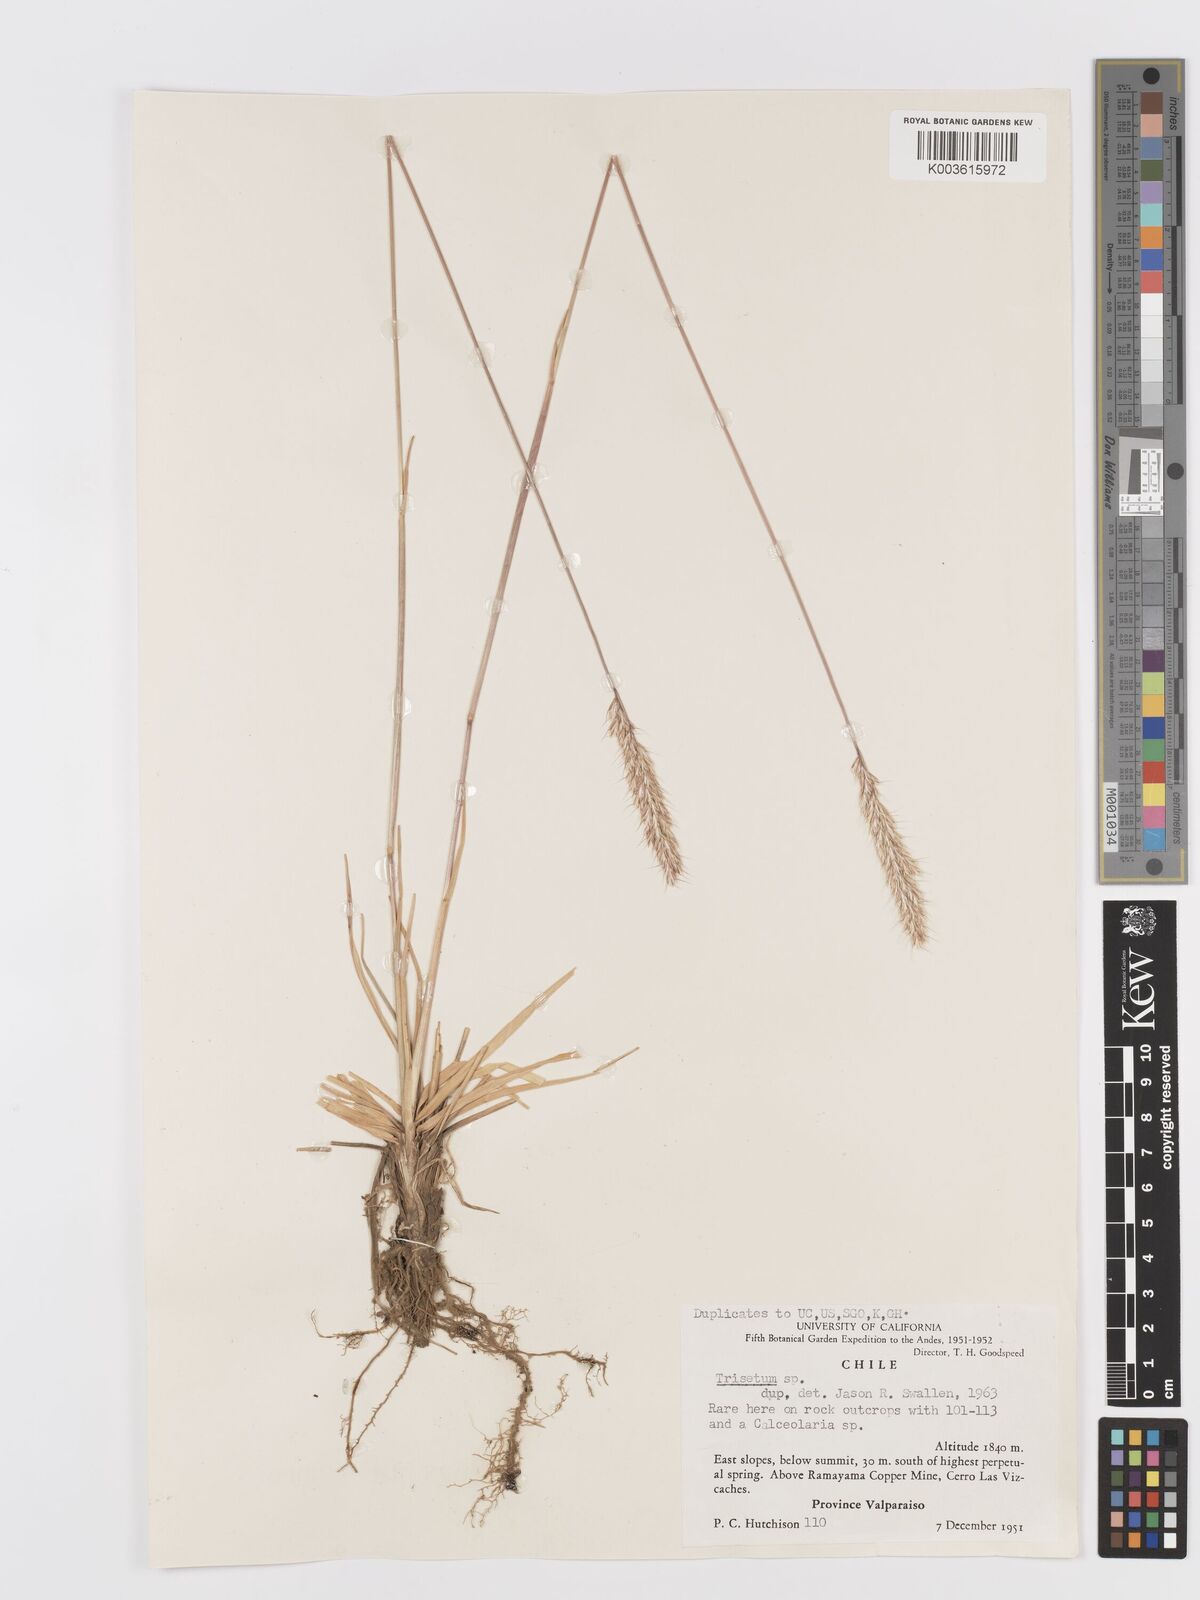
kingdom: Plantae
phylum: Tracheophyta
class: Liliopsida
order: Poales
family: Poaceae
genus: Trisetum
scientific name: Trisetum
